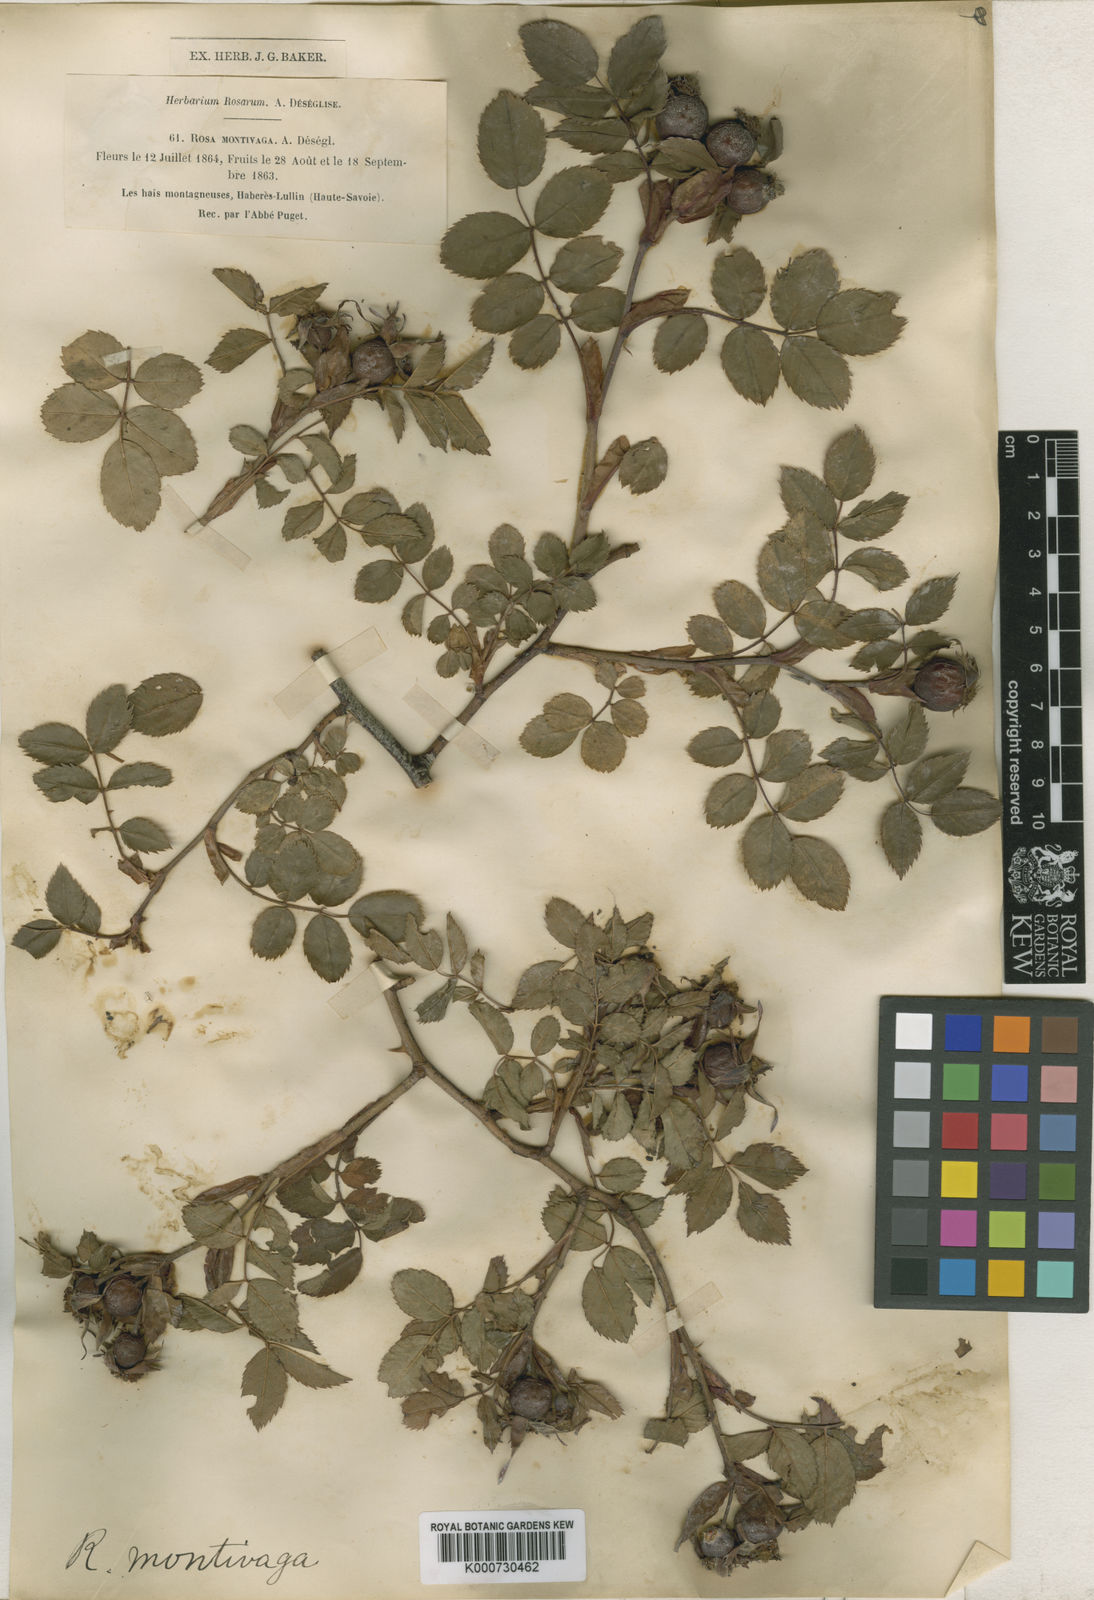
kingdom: Plantae
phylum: Tracheophyta
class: Magnoliopsida
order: Rosales
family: Rosaceae
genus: Rosa
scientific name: Rosa canina
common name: Dog rose
